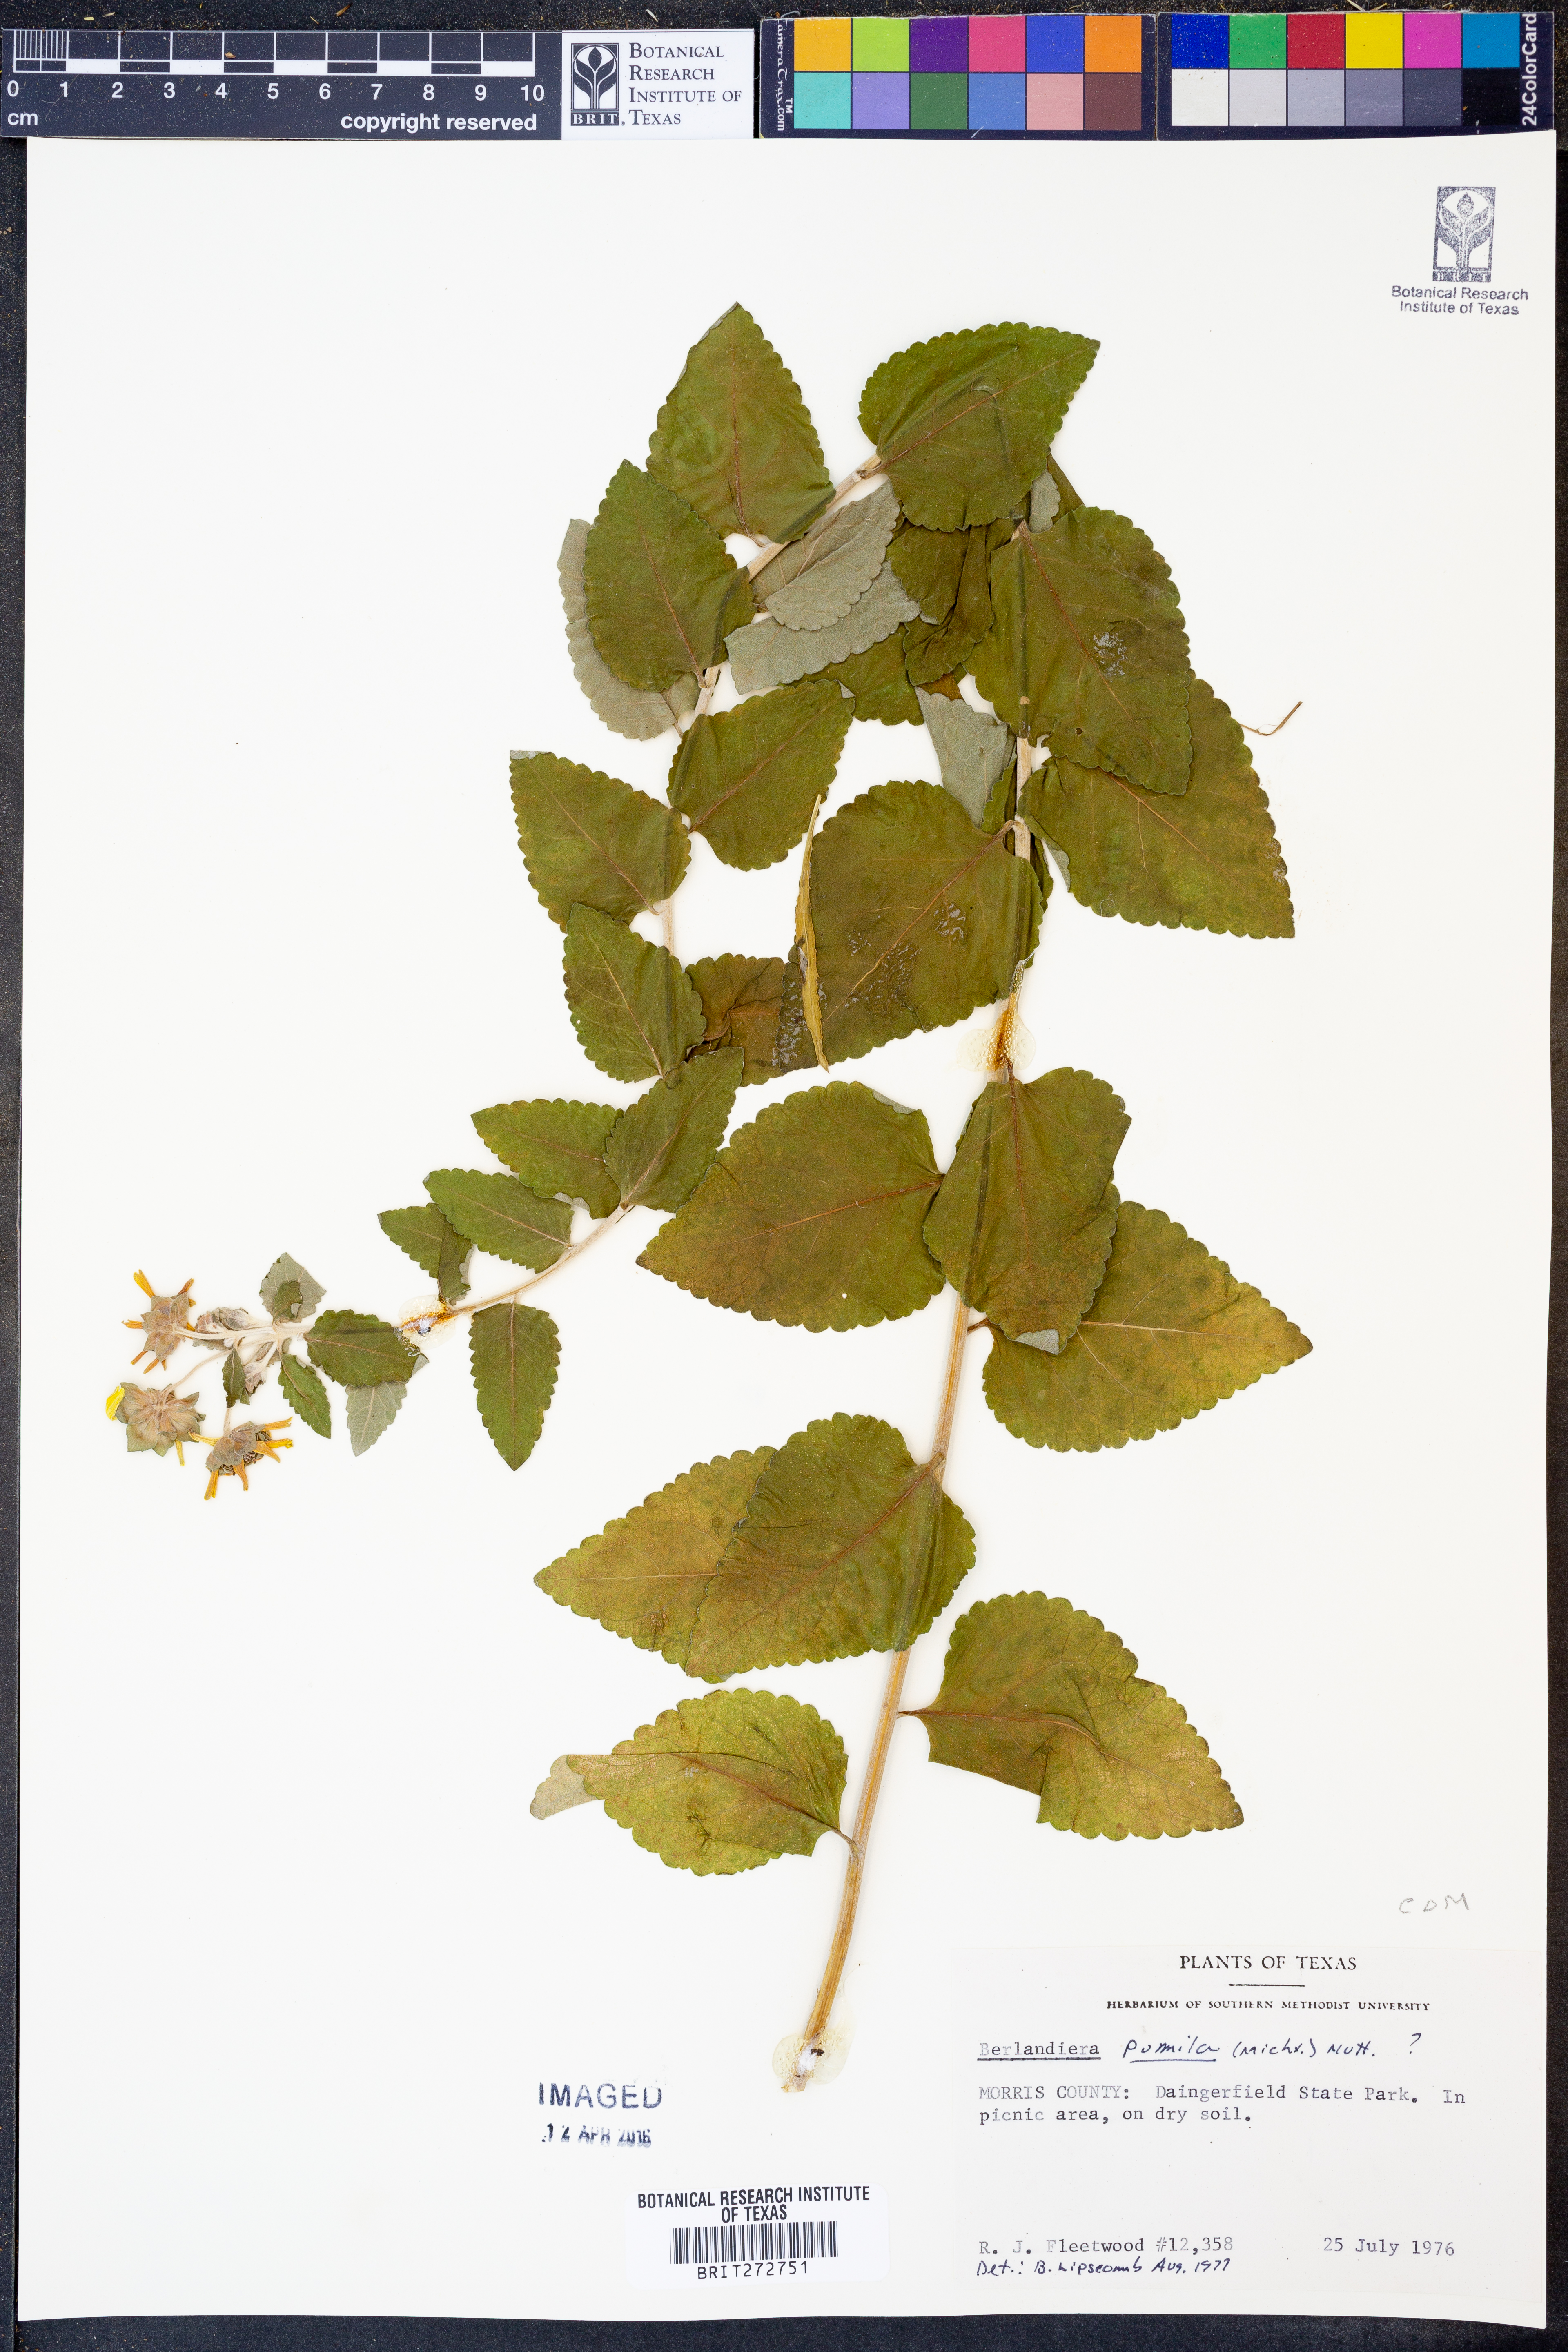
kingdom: Plantae
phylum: Tracheophyta
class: Magnoliopsida
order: Asterales
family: Asteraceae
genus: Berlandiera
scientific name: Berlandiera pumila
